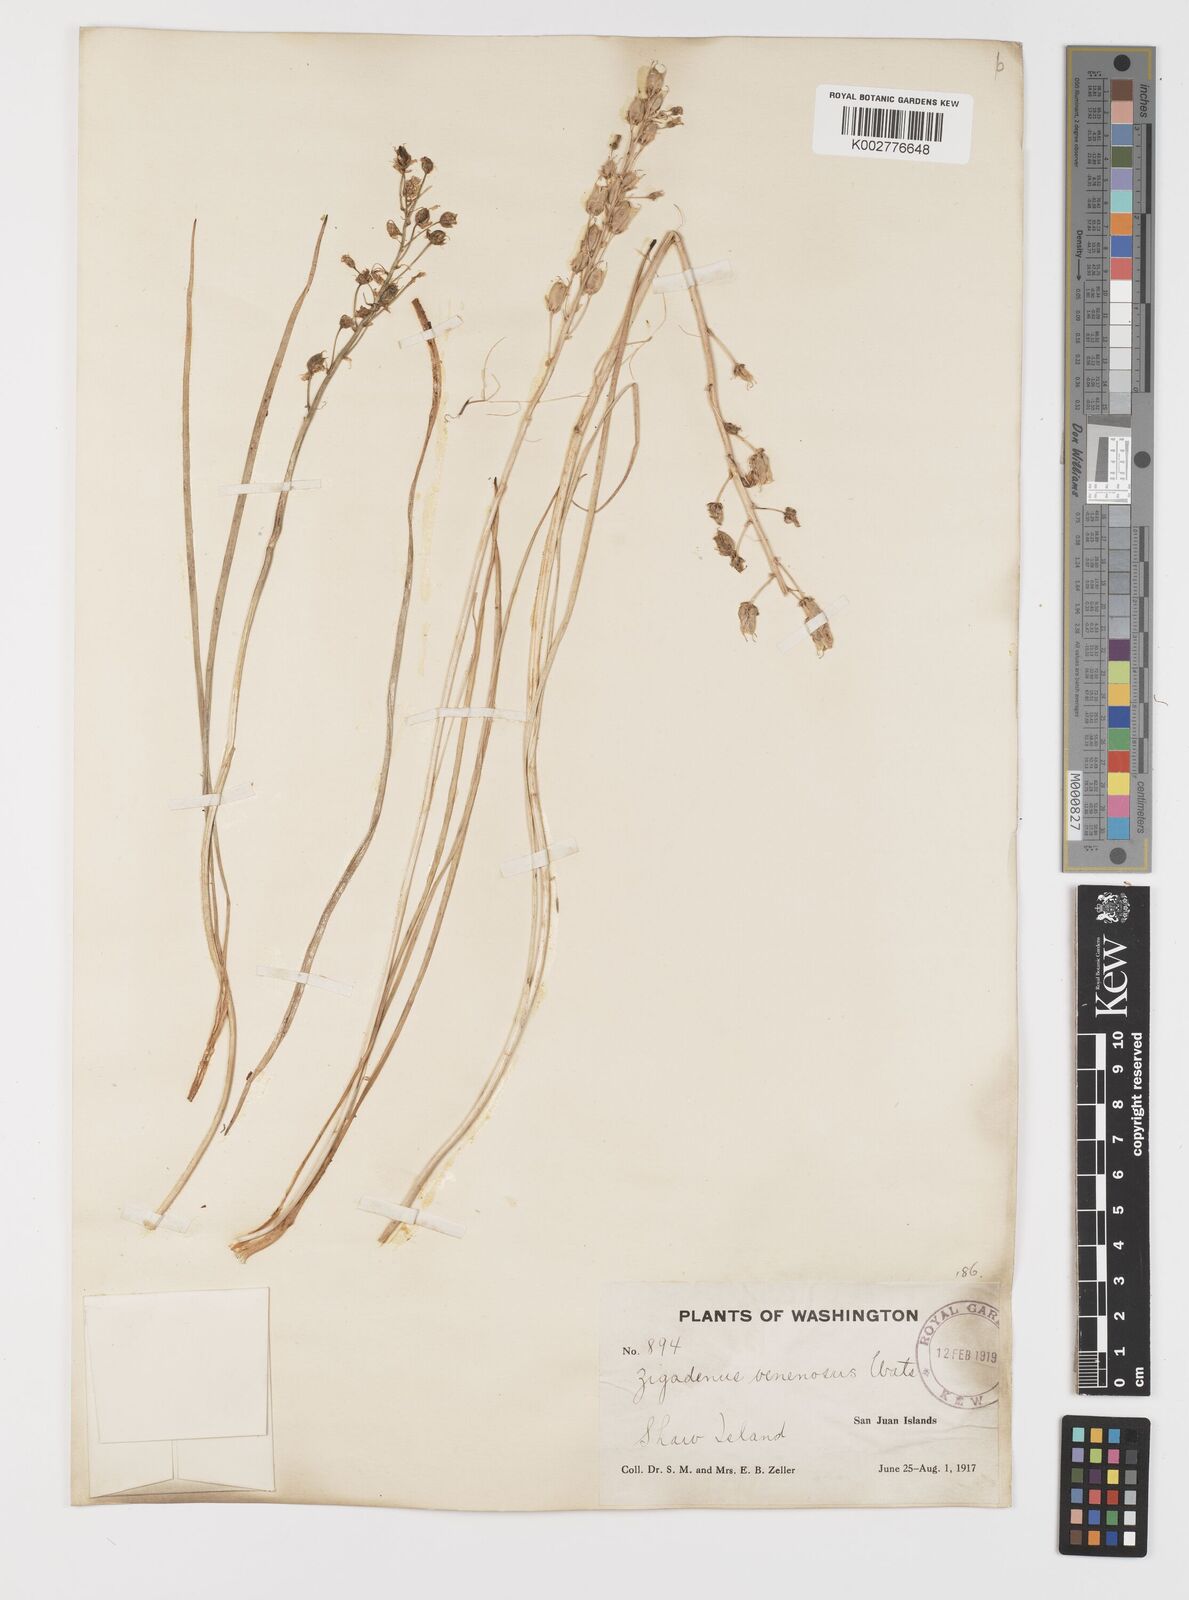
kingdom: Plantae
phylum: Tracheophyta
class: Liliopsida
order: Liliales
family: Melanthiaceae
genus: Toxicoscordion
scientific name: Toxicoscordion venenosum
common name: Meadow death camas
